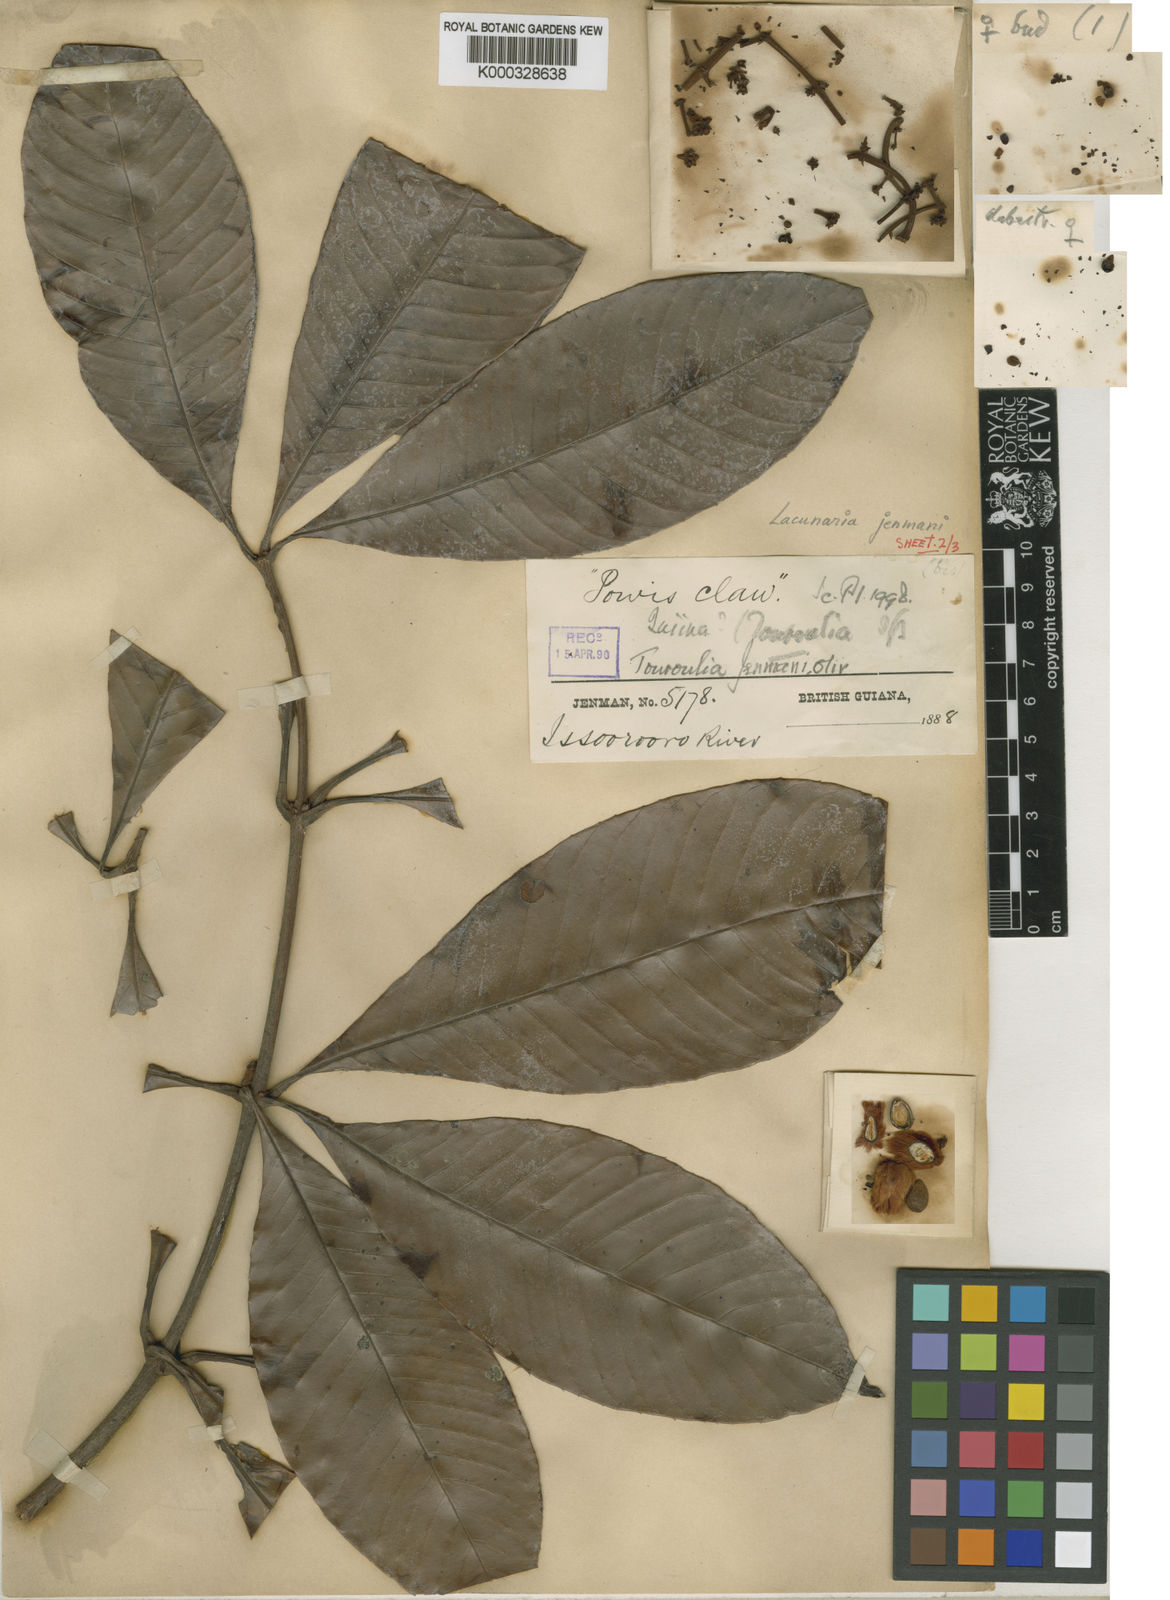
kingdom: Plantae
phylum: Tracheophyta
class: Magnoliopsida
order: Malpighiales
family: Quiinaceae
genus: Lacunaria
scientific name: Lacunaria jenmanii
